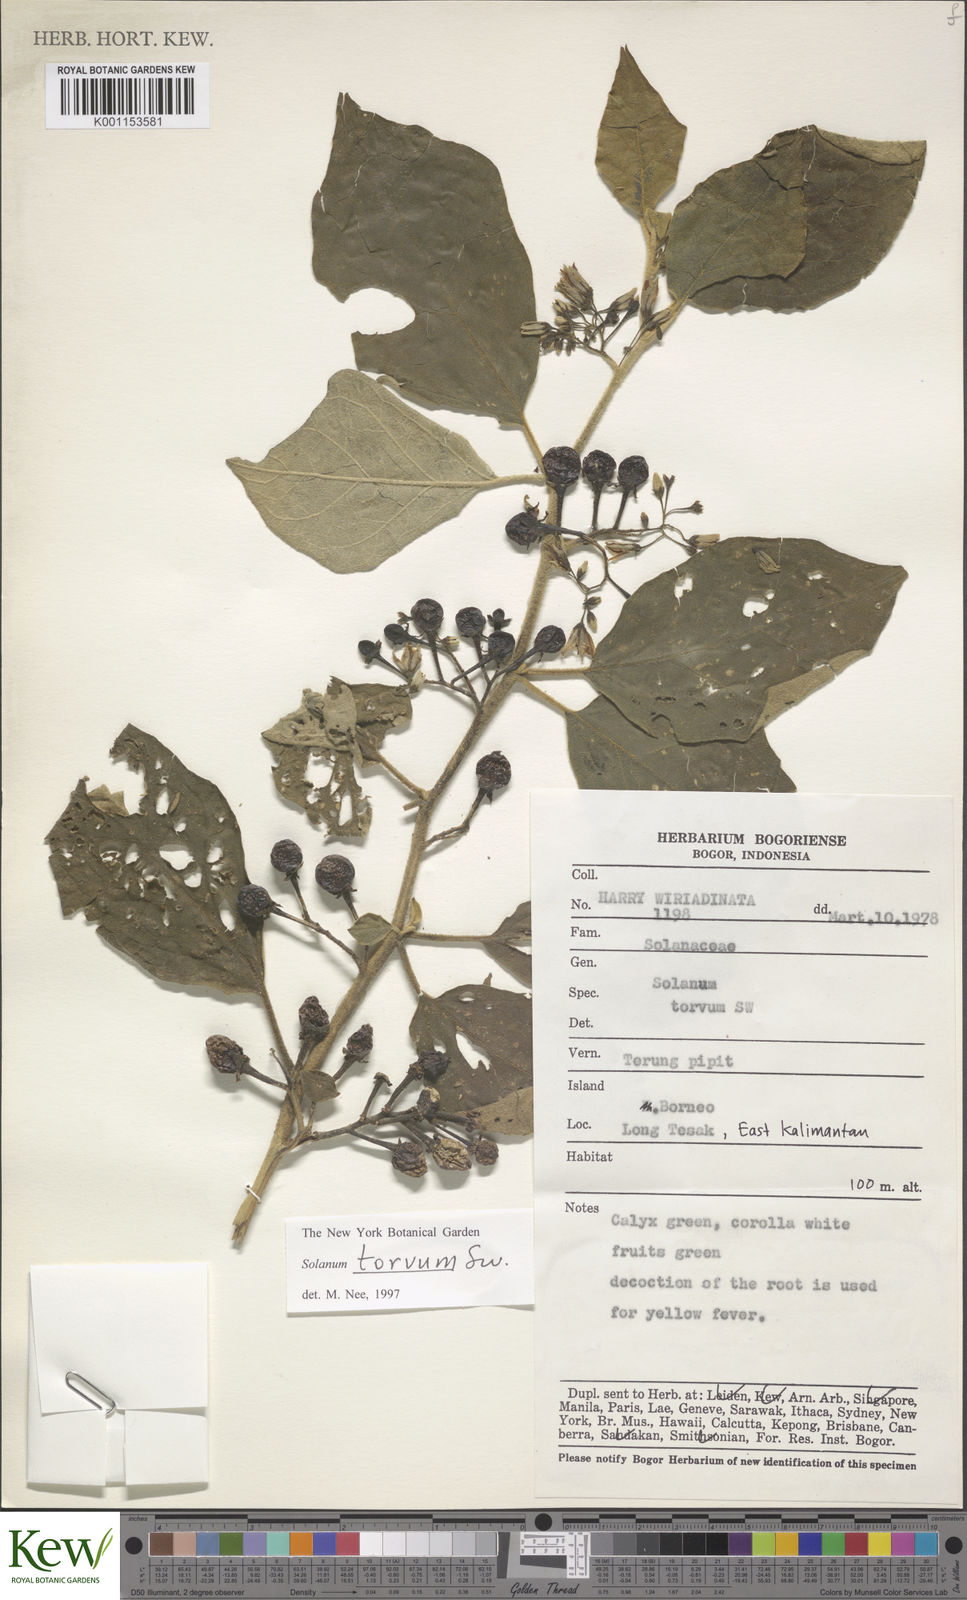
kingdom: Plantae
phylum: Tracheophyta
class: Magnoliopsida
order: Solanales
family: Solanaceae
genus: Solanum
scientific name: Solanum torvum
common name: Turkey berry
